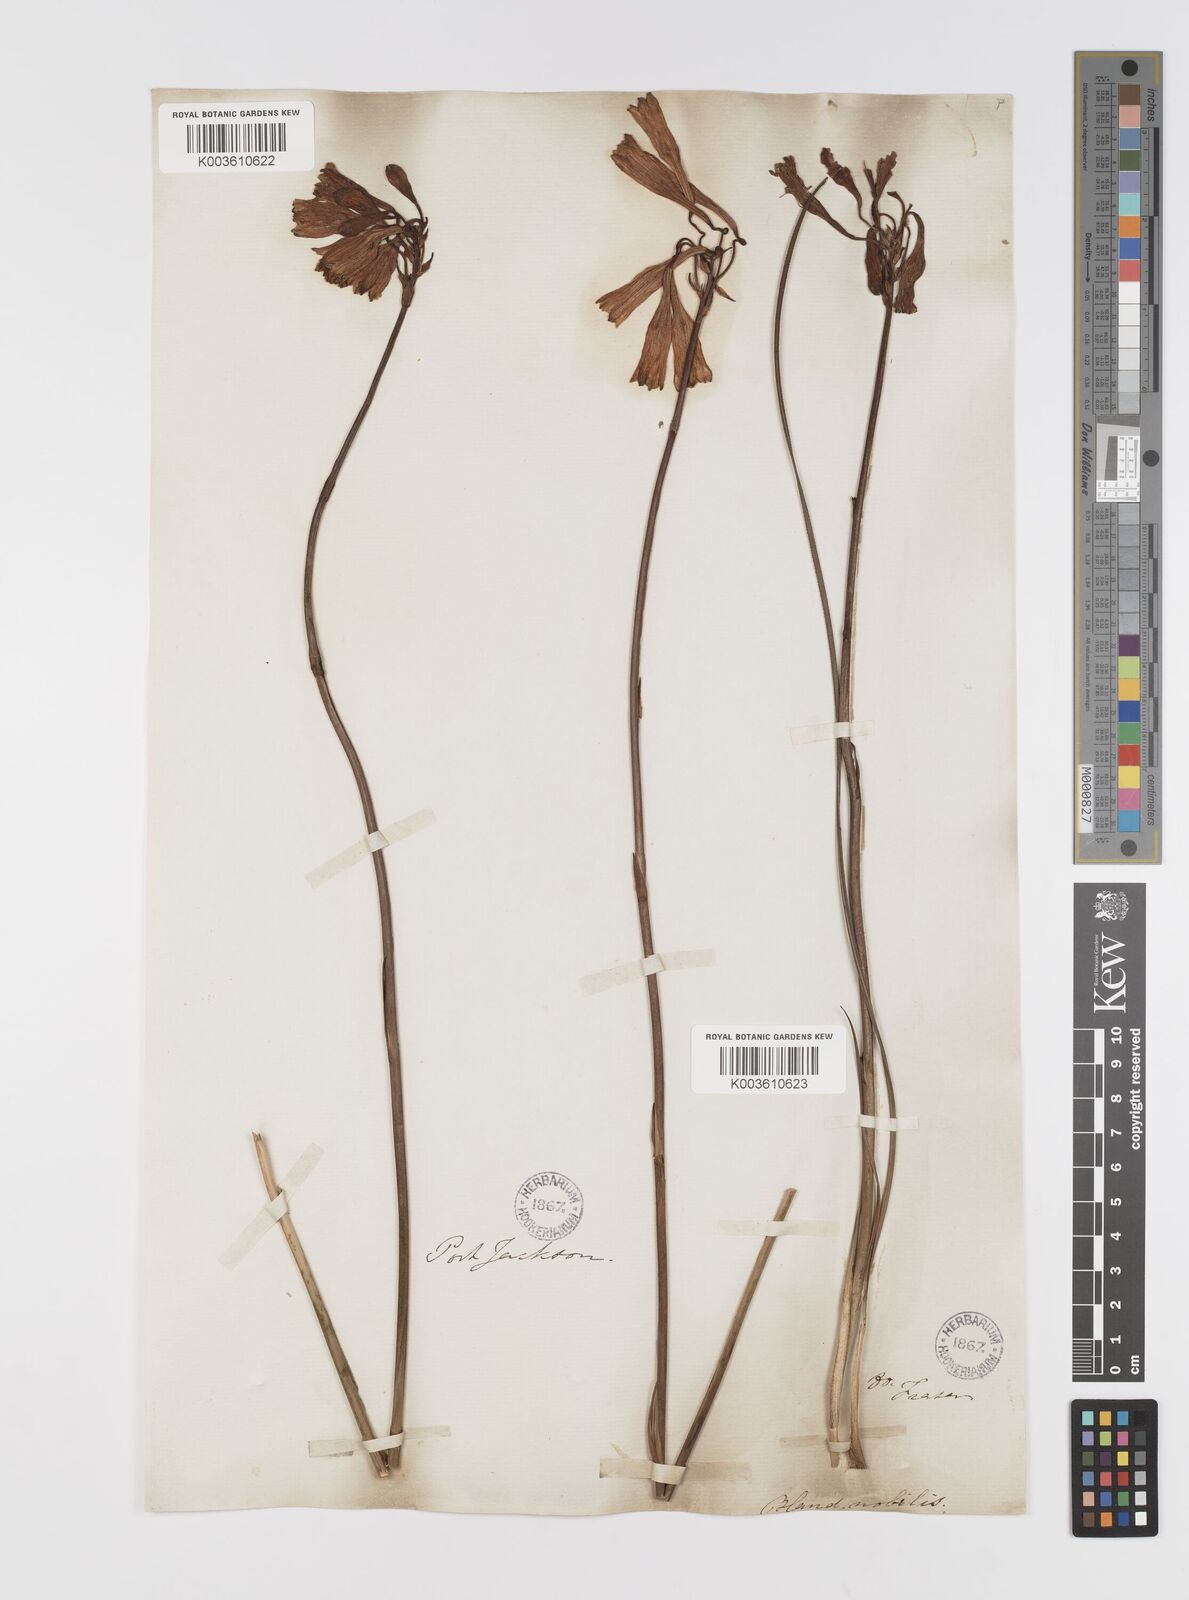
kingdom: Plantae
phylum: Tracheophyta
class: Liliopsida
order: Asparagales
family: Blandfordiaceae
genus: Blandfordia
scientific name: Blandfordia nobilis
